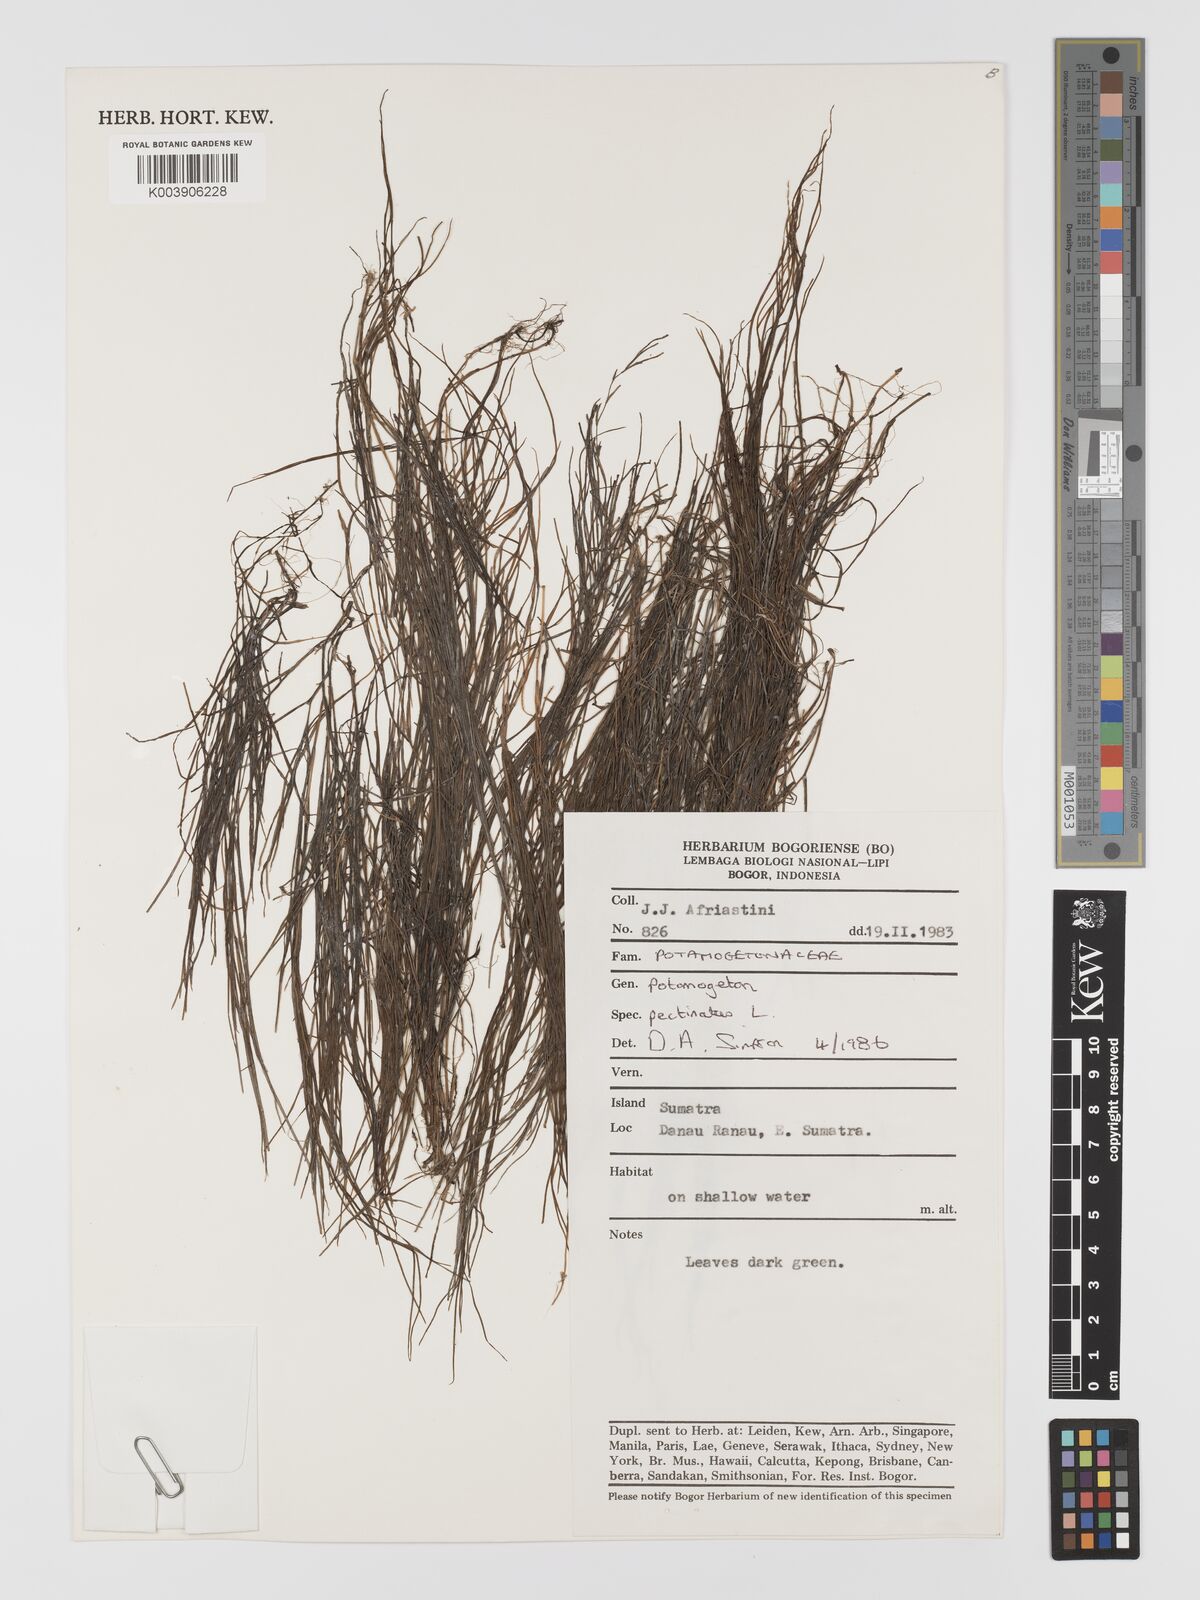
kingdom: Plantae
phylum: Tracheophyta
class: Liliopsida
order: Alismatales
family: Potamogetonaceae
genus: Stuckenia
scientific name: Stuckenia pectinata
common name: Sago pondweed
